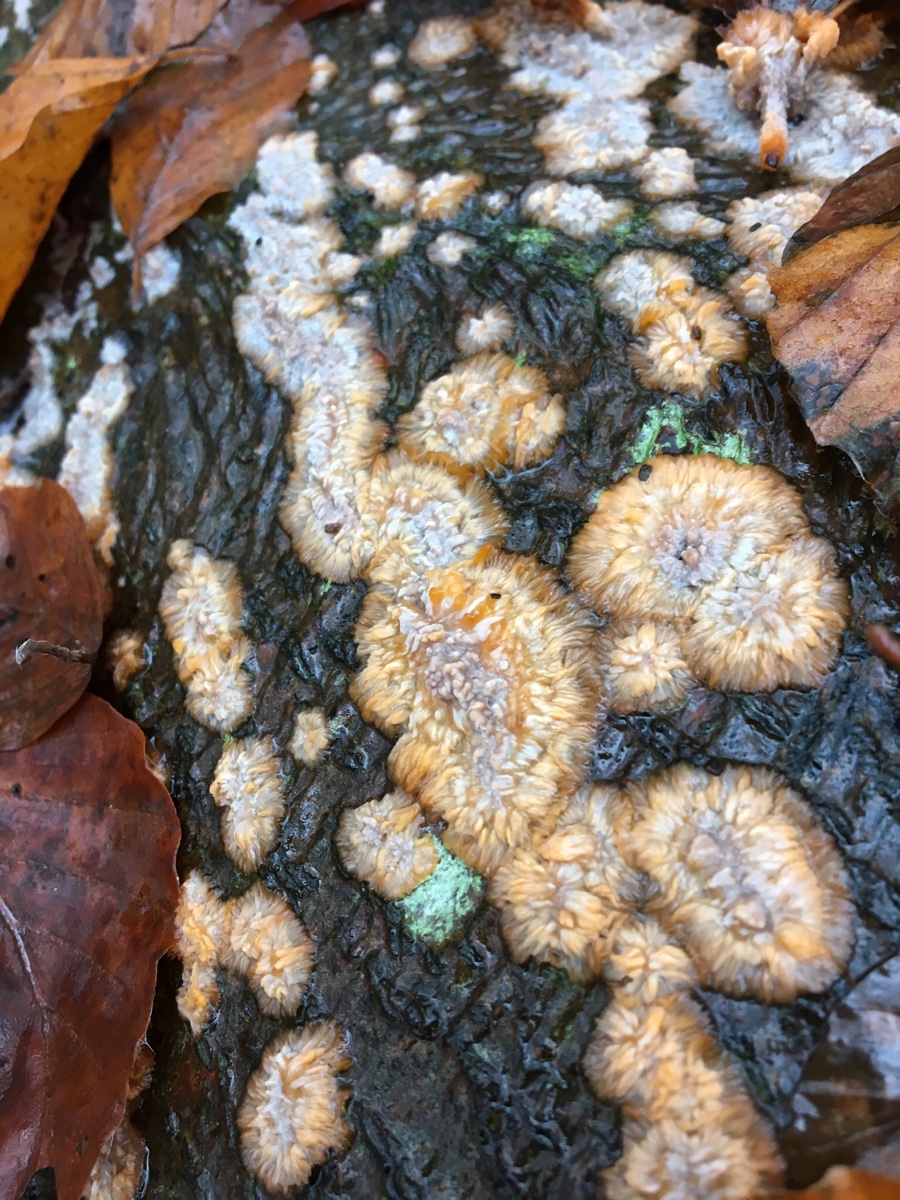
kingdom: Fungi
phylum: Basidiomycota
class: Agaricomycetes
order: Polyporales
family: Meruliaceae
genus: Phlebia
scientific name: Phlebia radiata
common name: stråle-åresvamp
